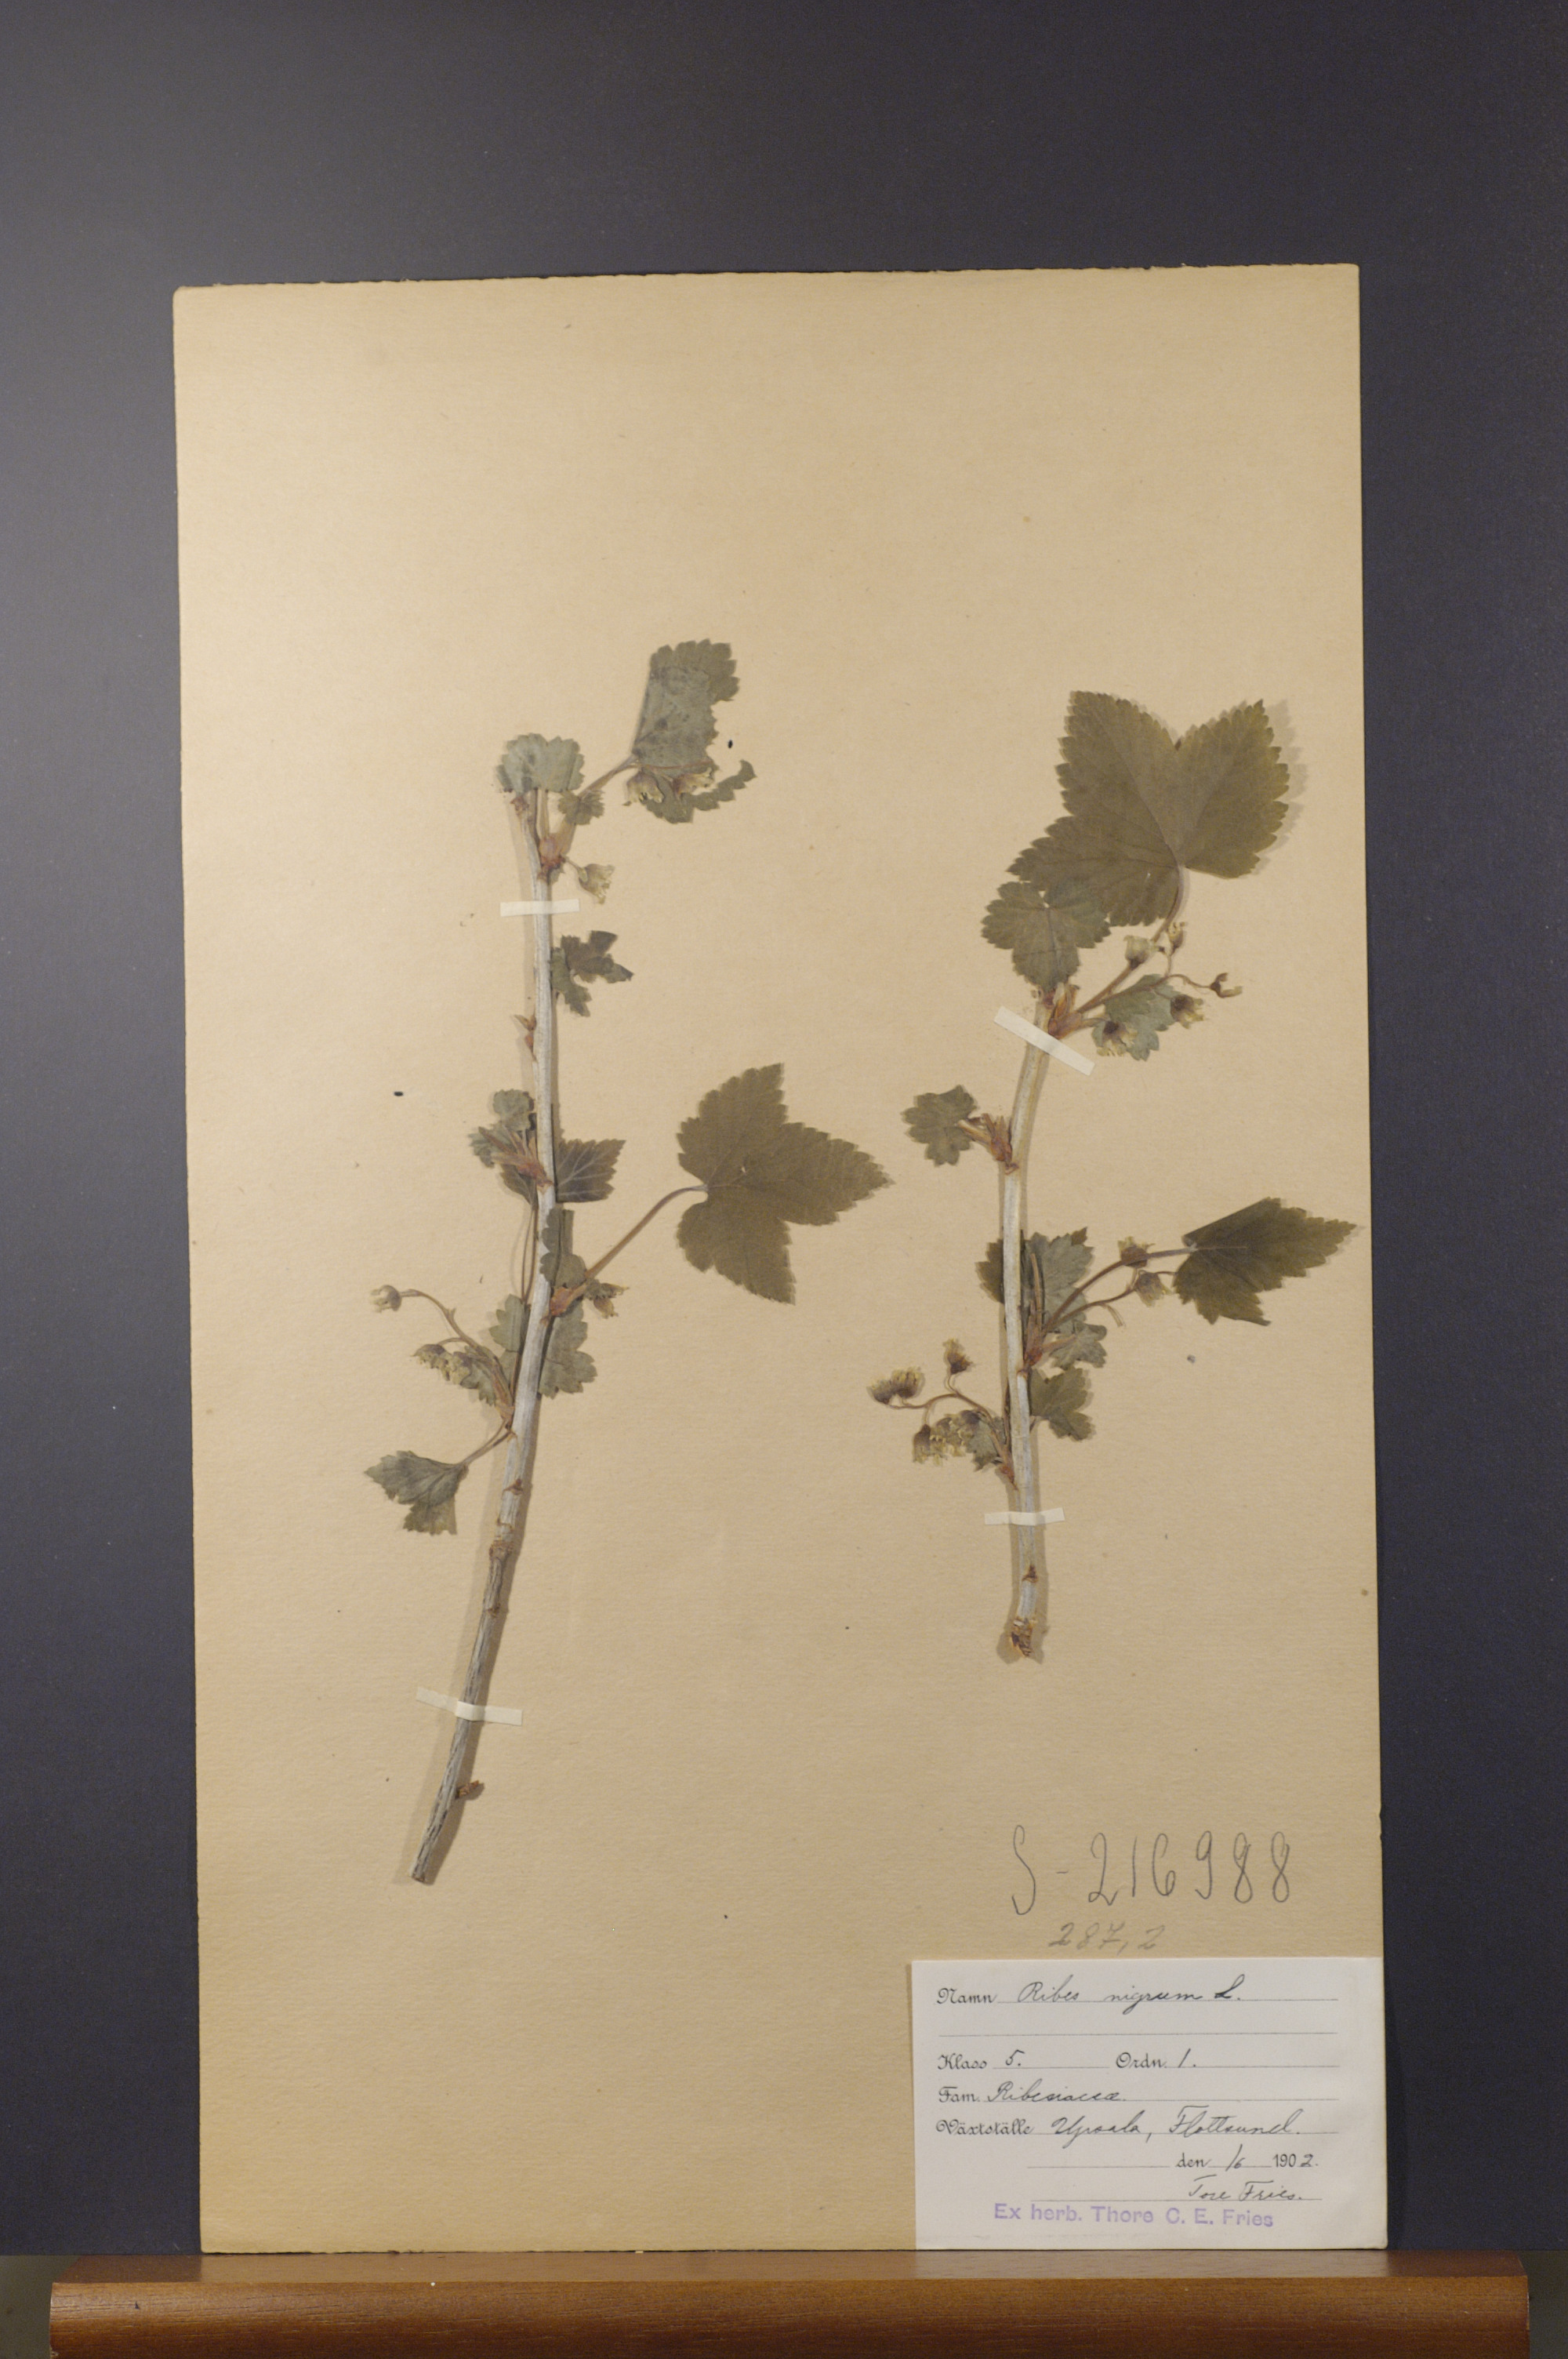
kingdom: Plantae
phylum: Tracheophyta
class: Magnoliopsida
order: Saxifragales
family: Grossulariaceae
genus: Ribes
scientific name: Ribes nigrum
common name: Black currant
